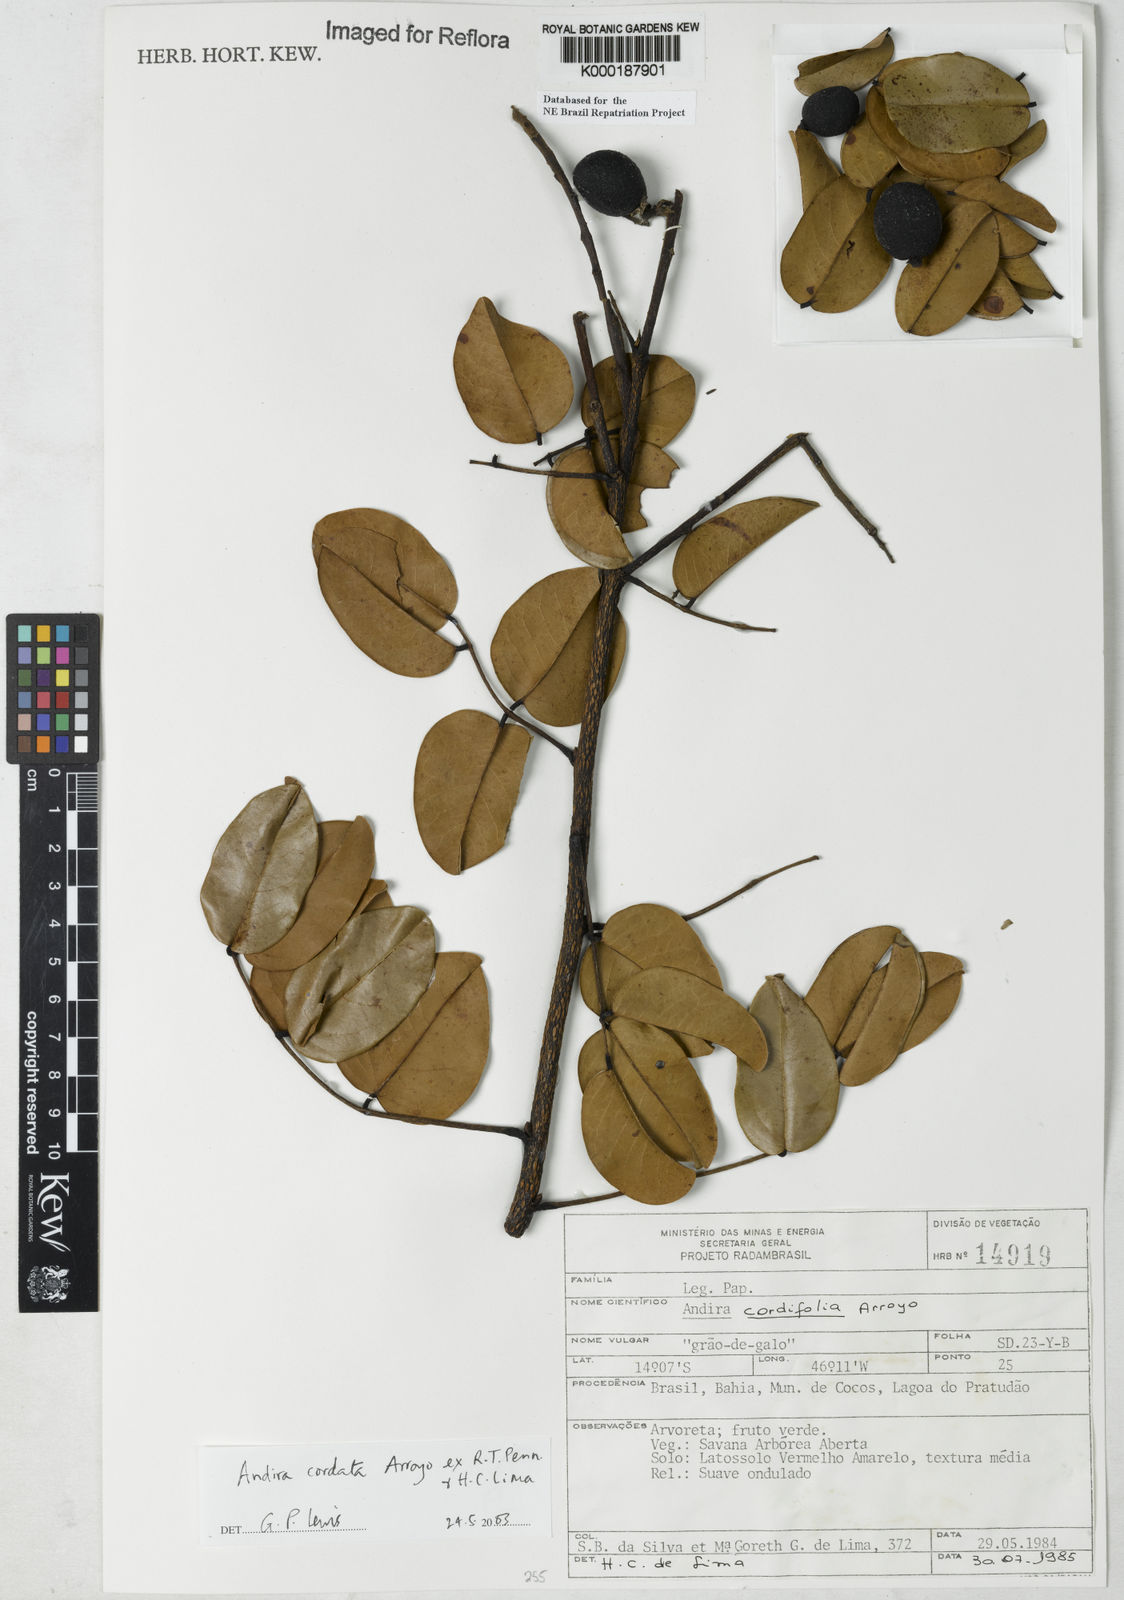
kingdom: Plantae
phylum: Tracheophyta
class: Magnoliopsida
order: Fabales
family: Fabaceae
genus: Andira
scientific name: Andira cordata
